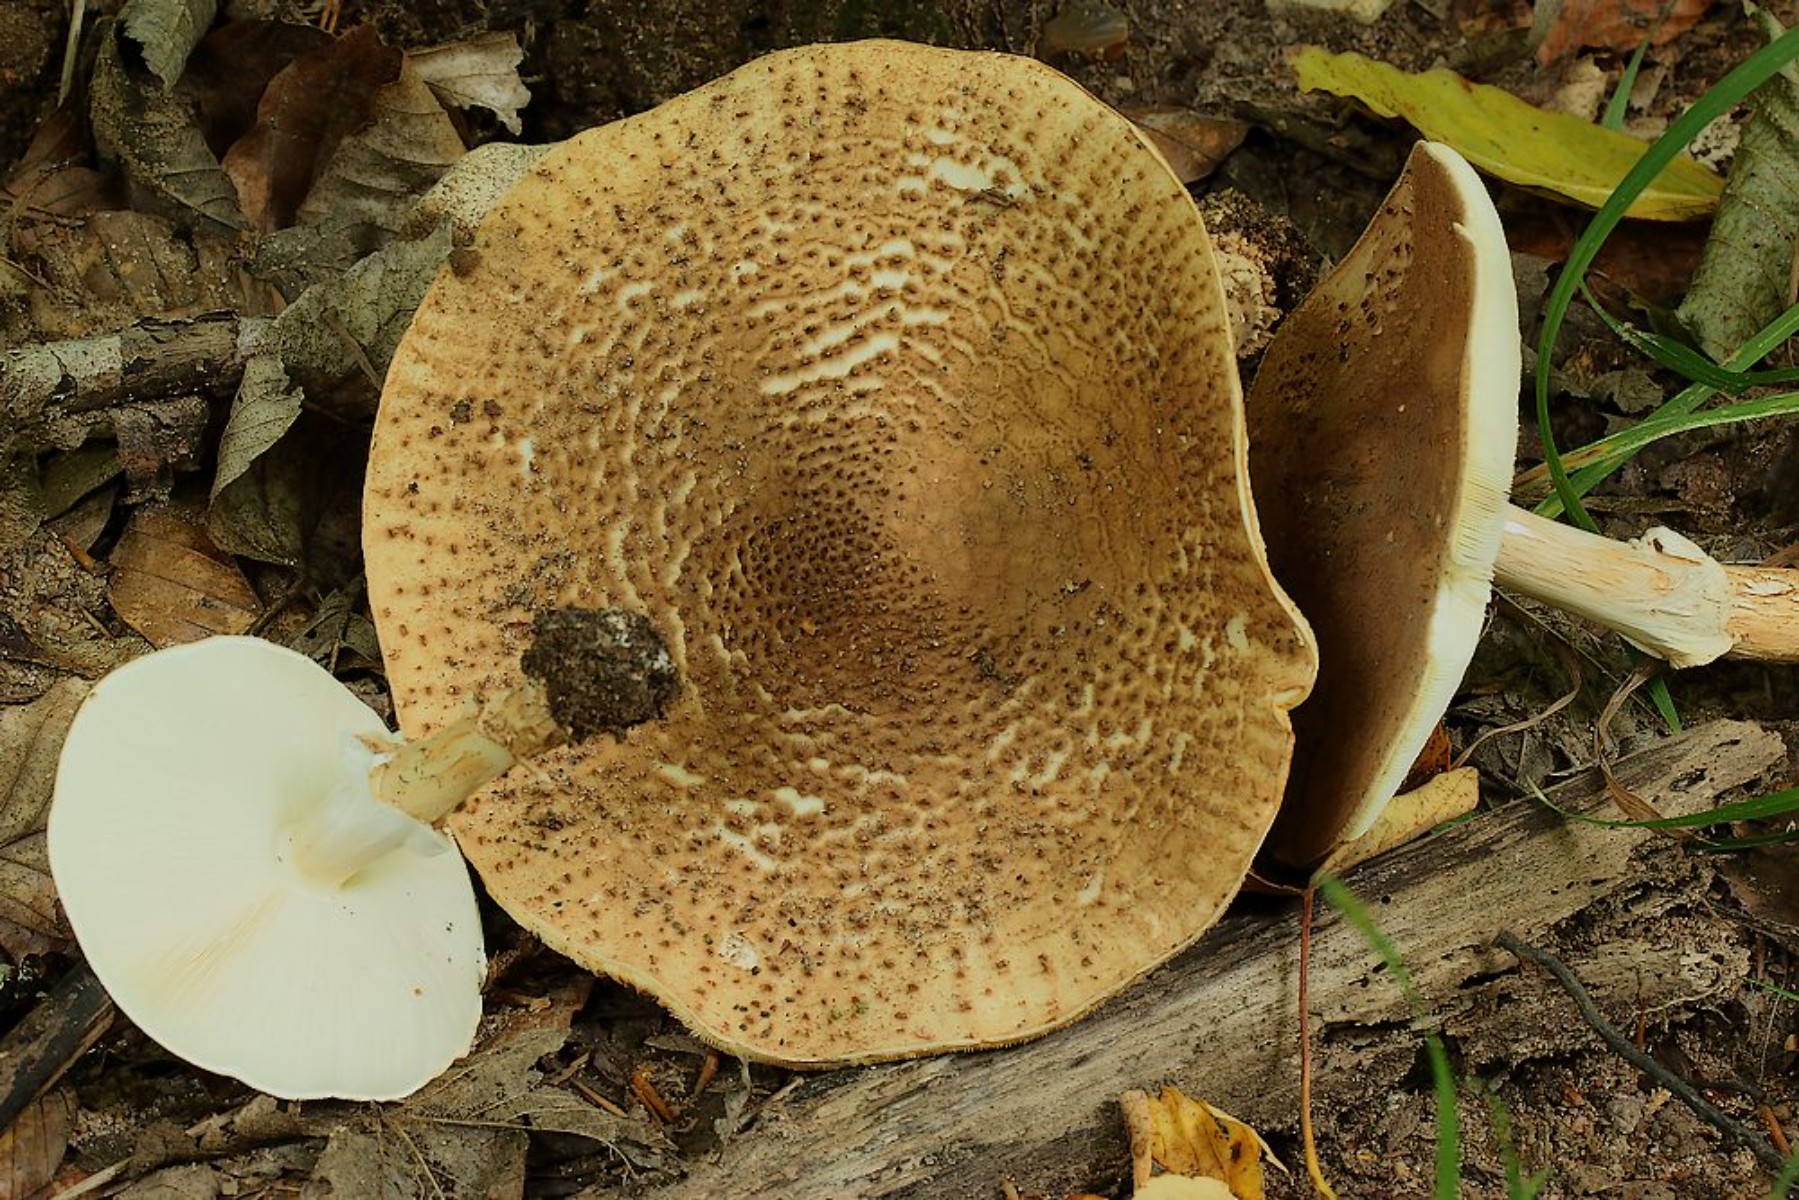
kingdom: Fungi
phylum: Basidiomycota
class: Agaricomycetes
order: Agaricales
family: Agaricaceae
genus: Echinoderma
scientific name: Echinoderma asperum
